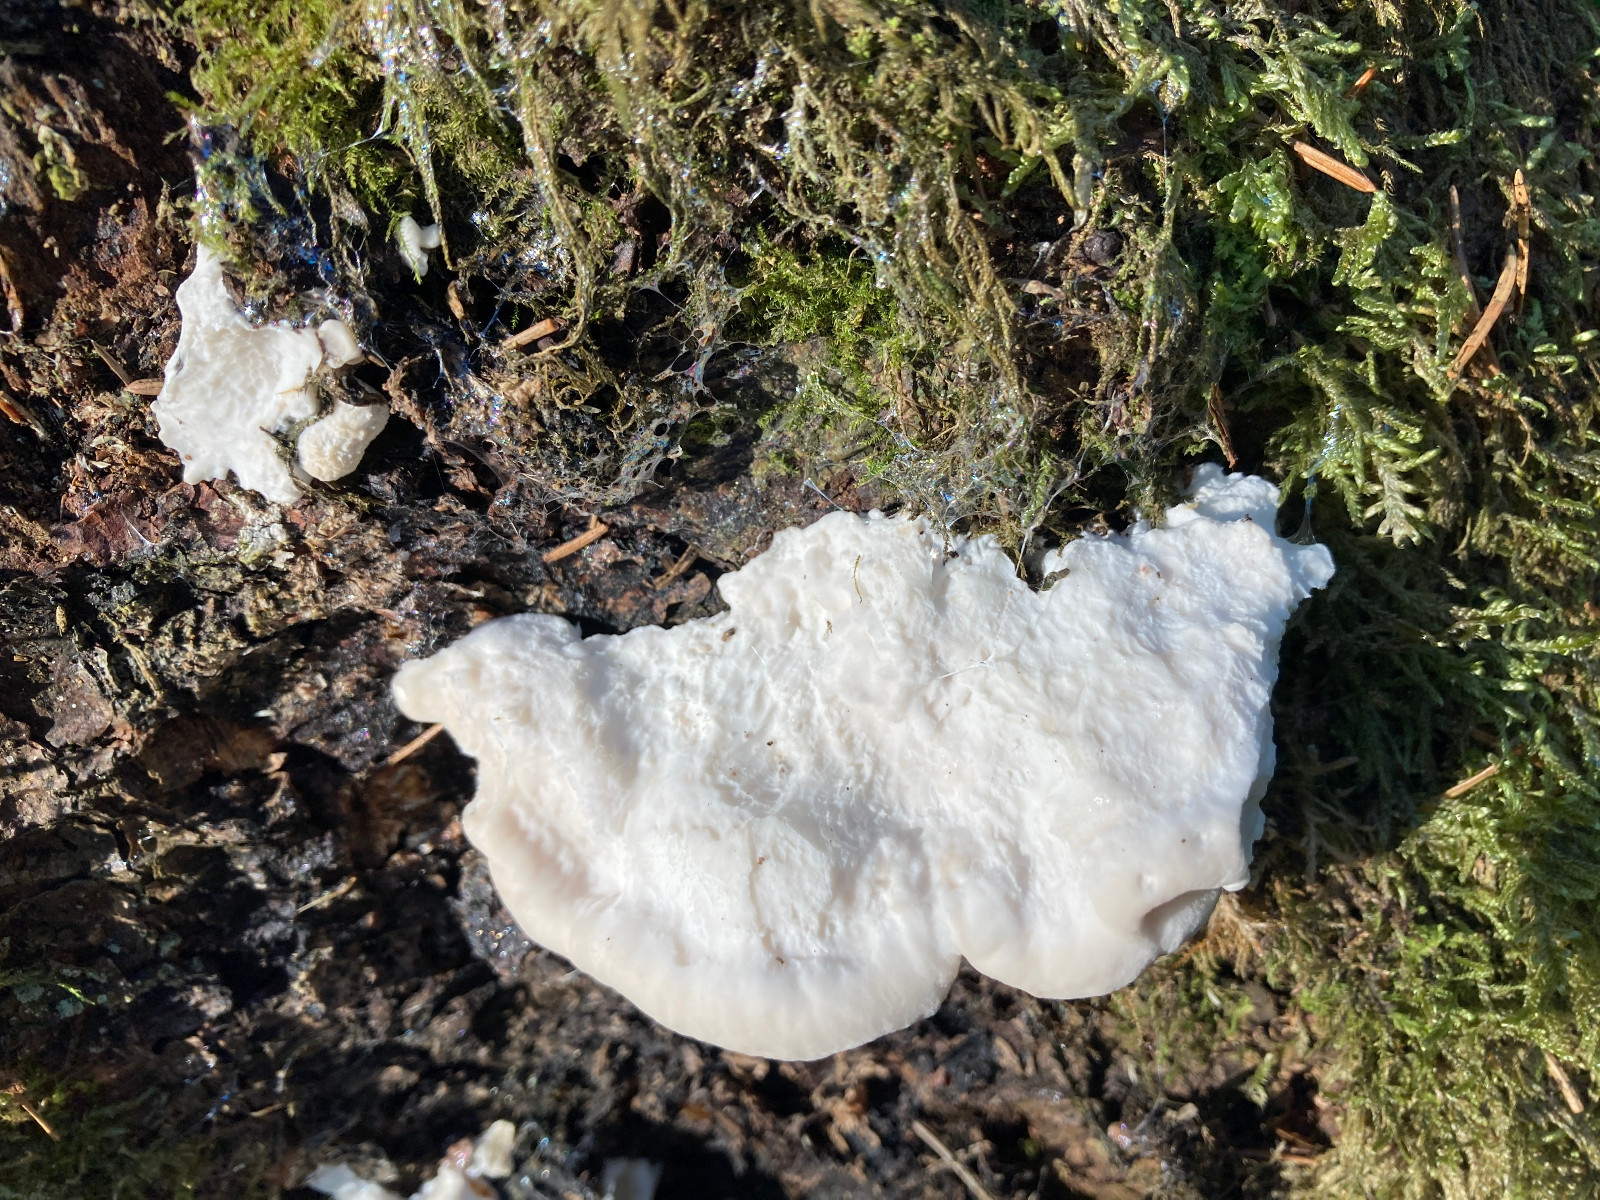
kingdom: Fungi
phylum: Basidiomycota
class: Agaricomycetes
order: Polyporales
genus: Amaropostia
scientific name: Amaropostia stiptica
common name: bitter kødporesvamp
